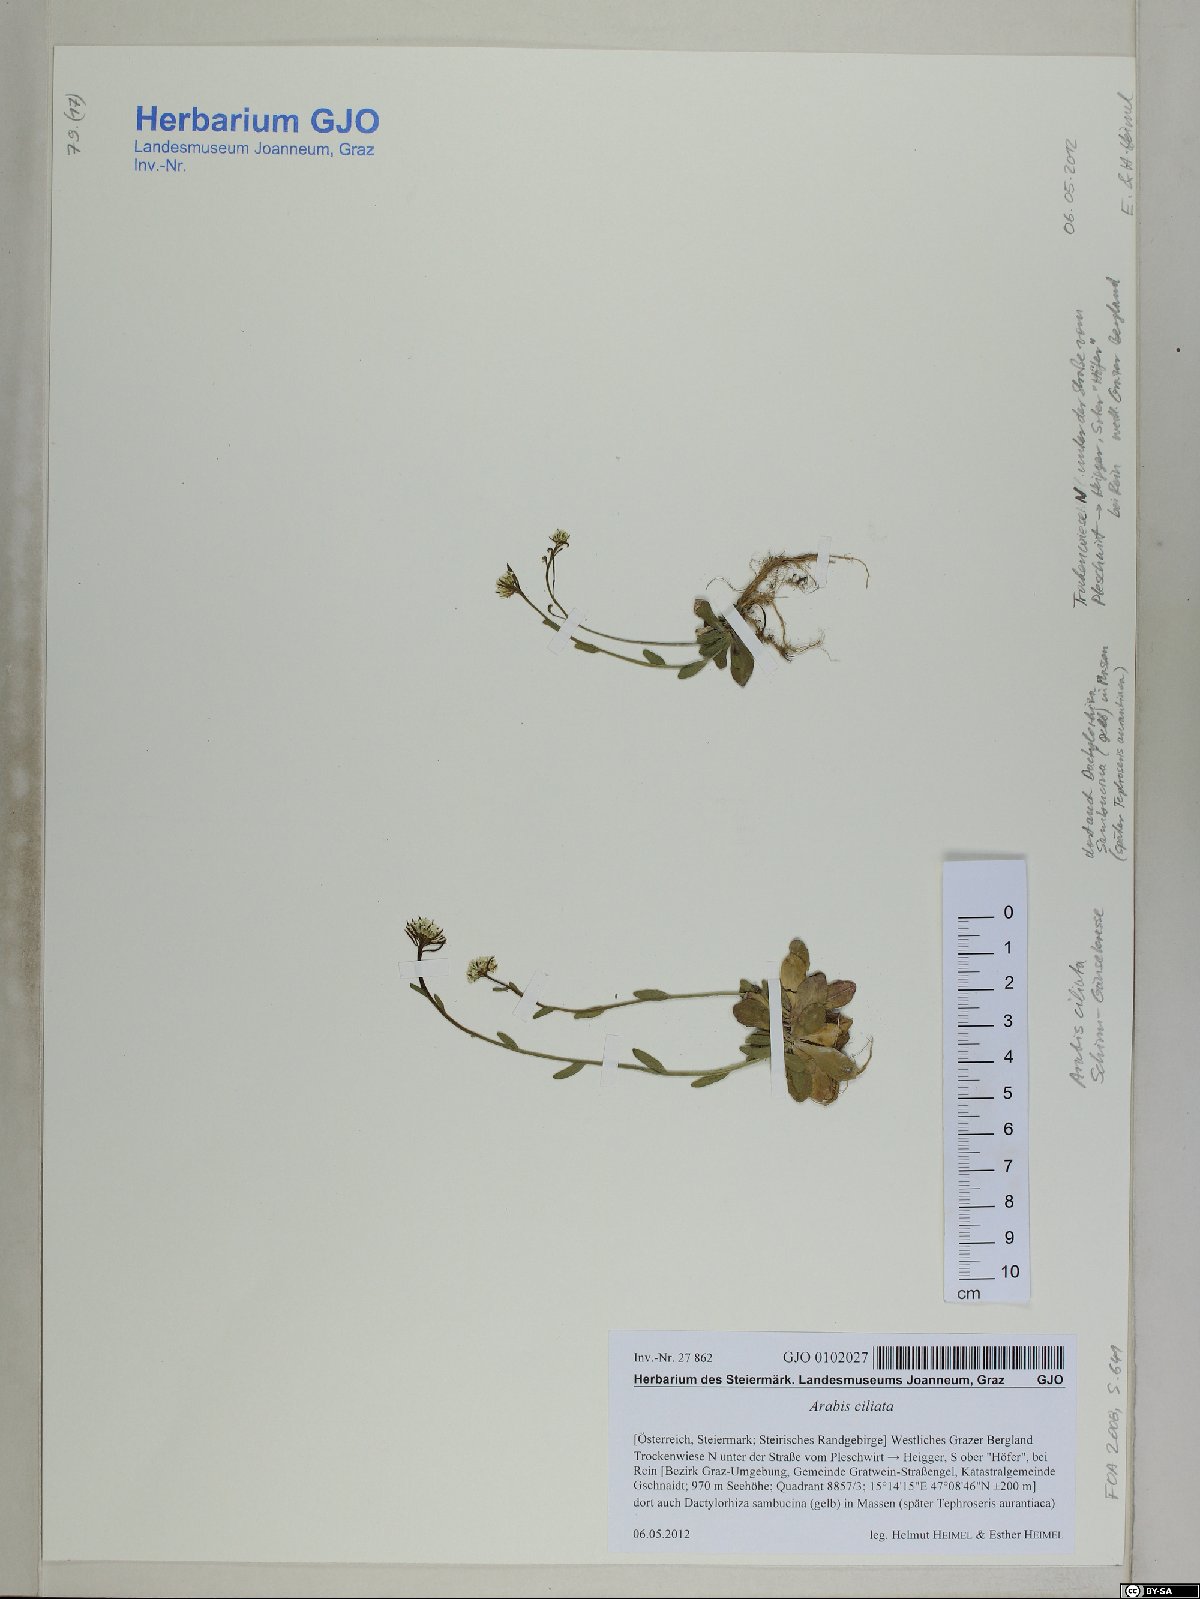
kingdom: Plantae
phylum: Tracheophyta
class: Magnoliopsida
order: Brassicales
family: Brassicaceae
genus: Arabis
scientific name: Arabis ciliata
